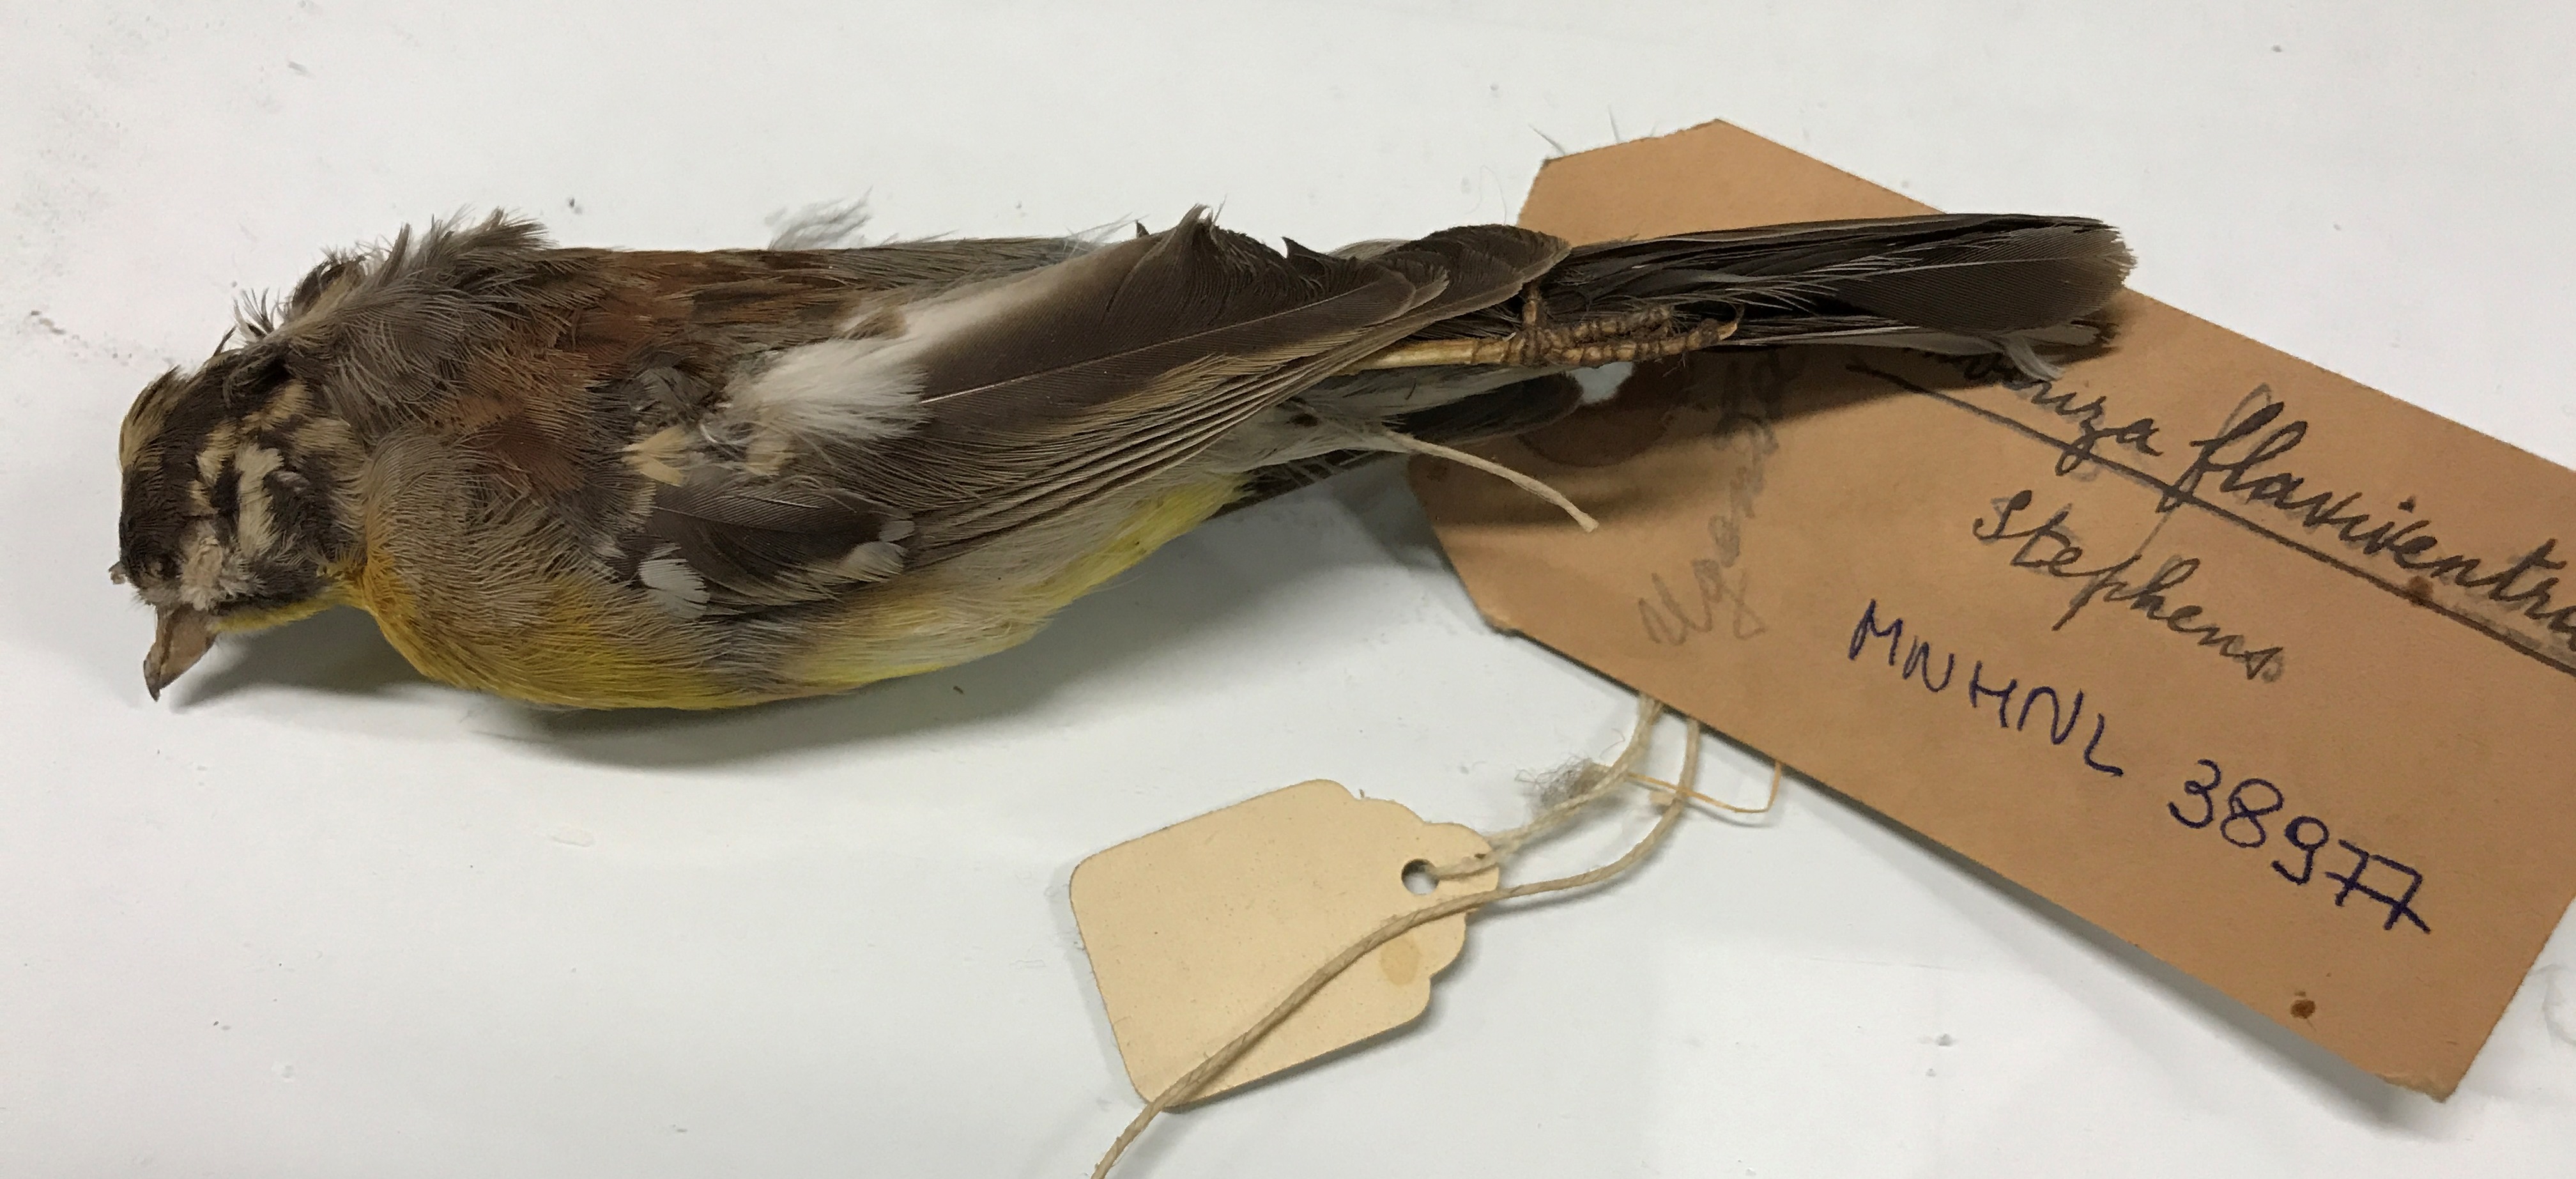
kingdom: Animalia
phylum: Chordata
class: Aves
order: Passeriformes
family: Emberizidae
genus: Emberiza
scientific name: Emberiza flaviventris
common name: Golden-breasted bunting
